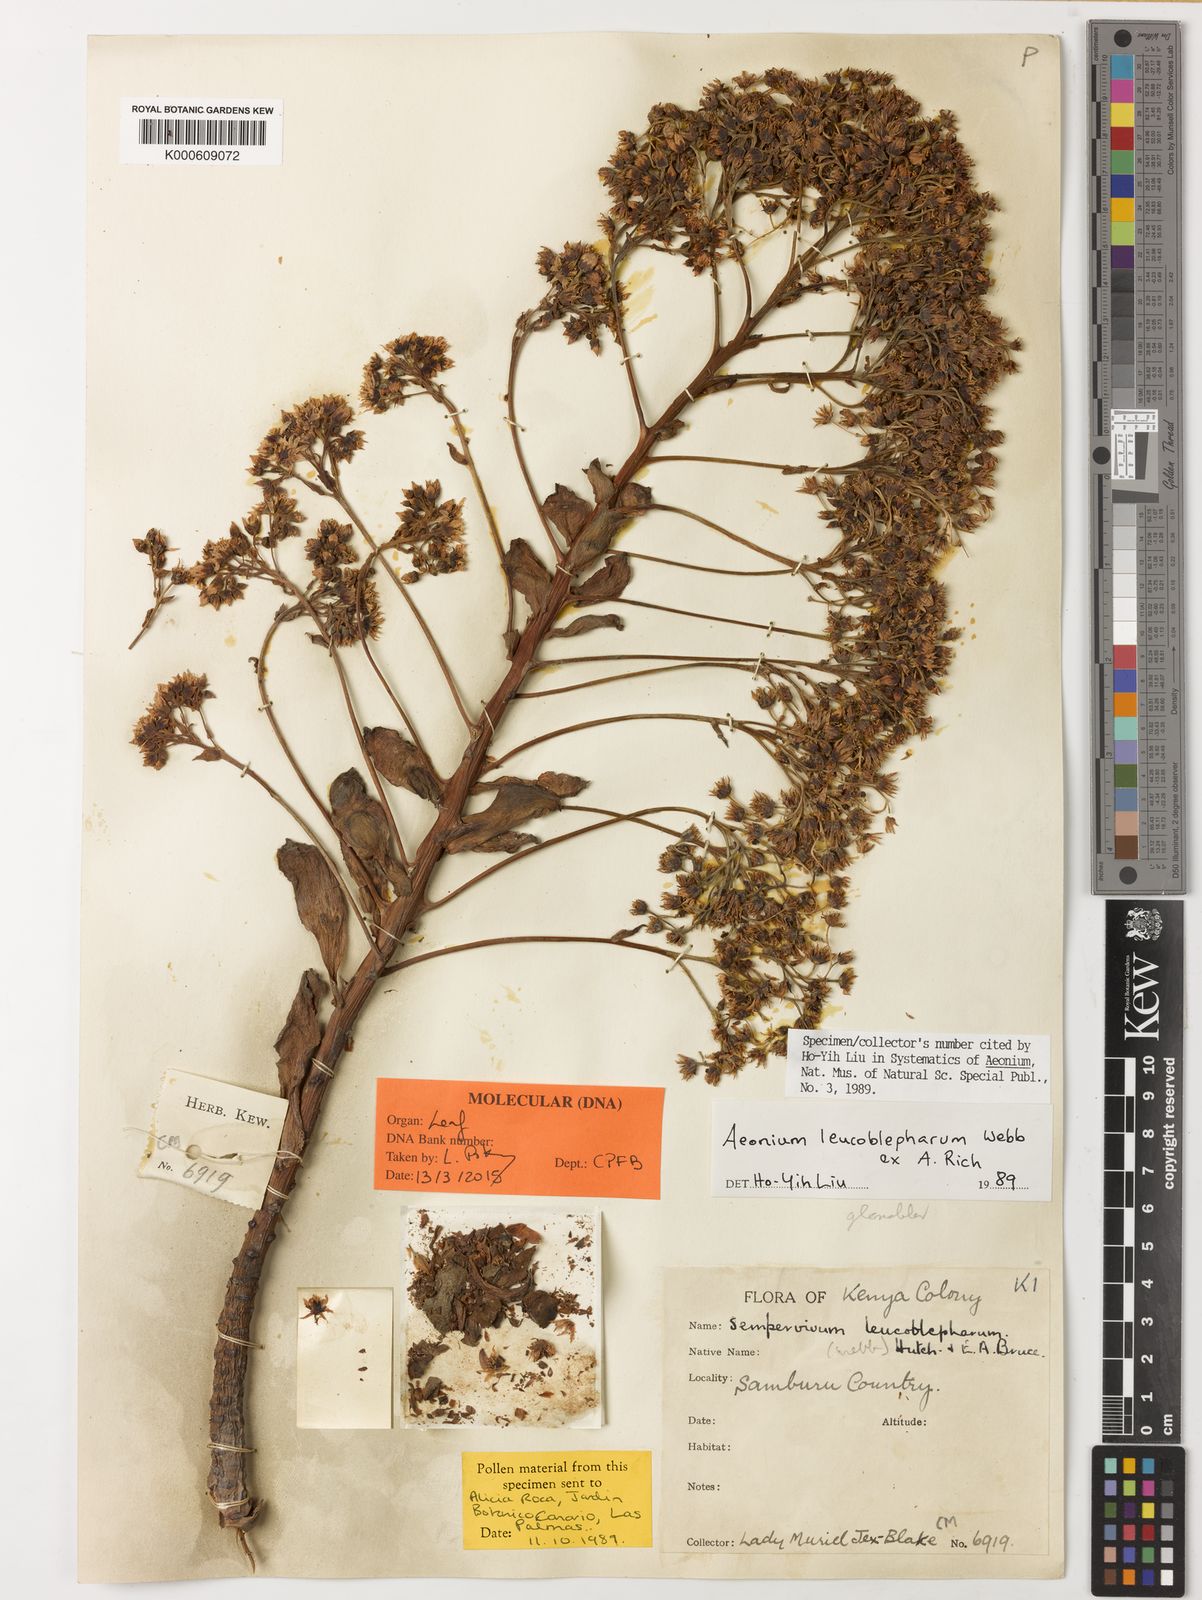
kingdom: Plantae
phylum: Tracheophyta
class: Magnoliopsida
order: Saxifragales
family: Crassulaceae
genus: Aeonium
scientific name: Aeonium leucoblepharum
